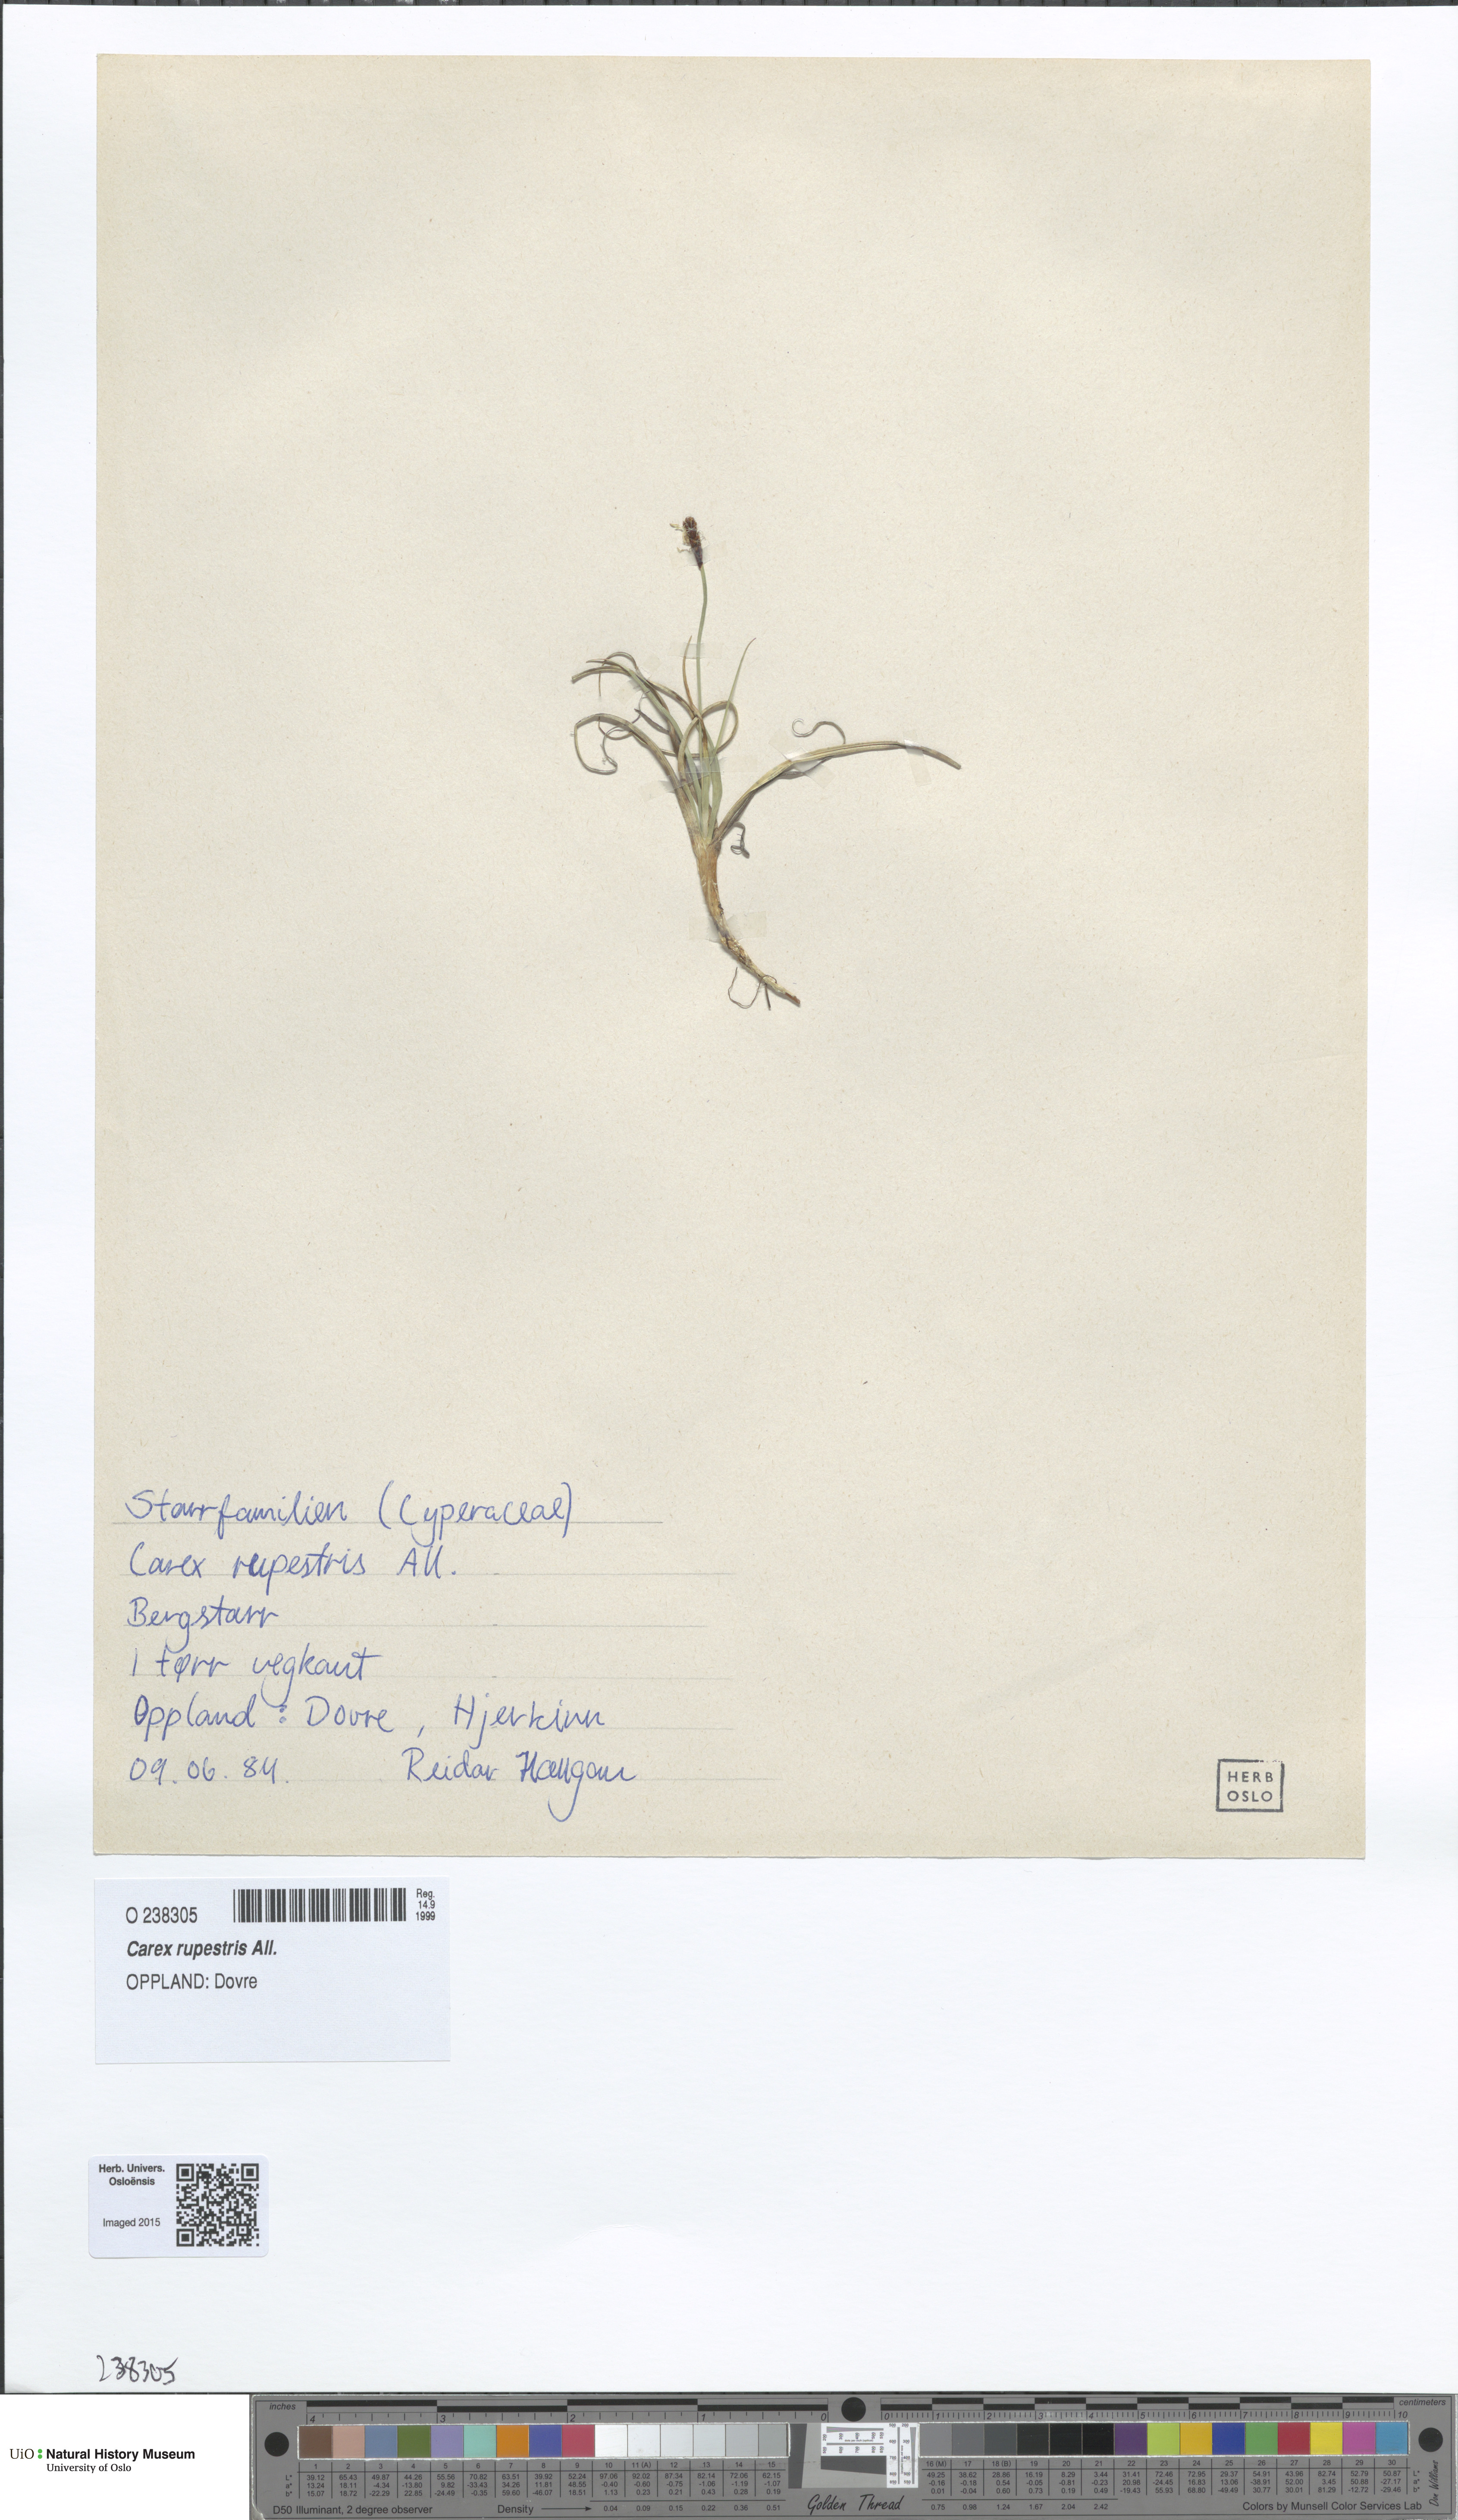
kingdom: Plantae
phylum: Tracheophyta
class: Liliopsida
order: Poales
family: Cyperaceae
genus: Carex
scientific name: Carex rupestris
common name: Rock sedge
